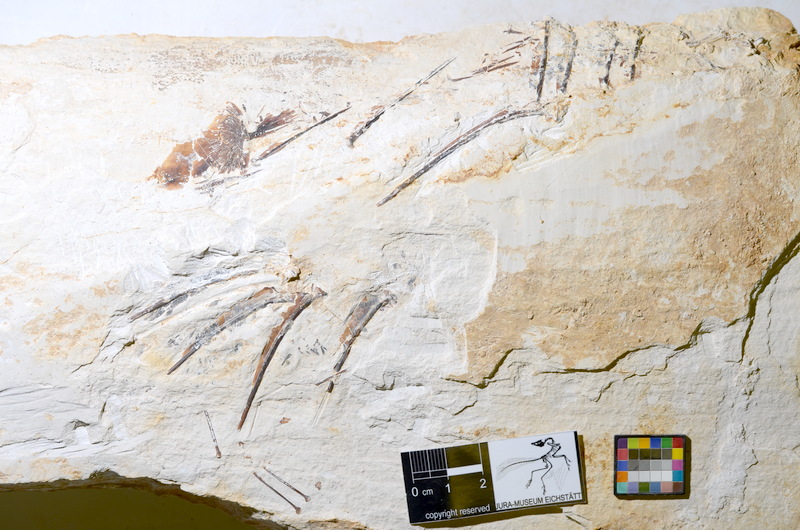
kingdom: Animalia
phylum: Chordata
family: Pycnodontidae
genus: Proscinetes
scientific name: Proscinetes
